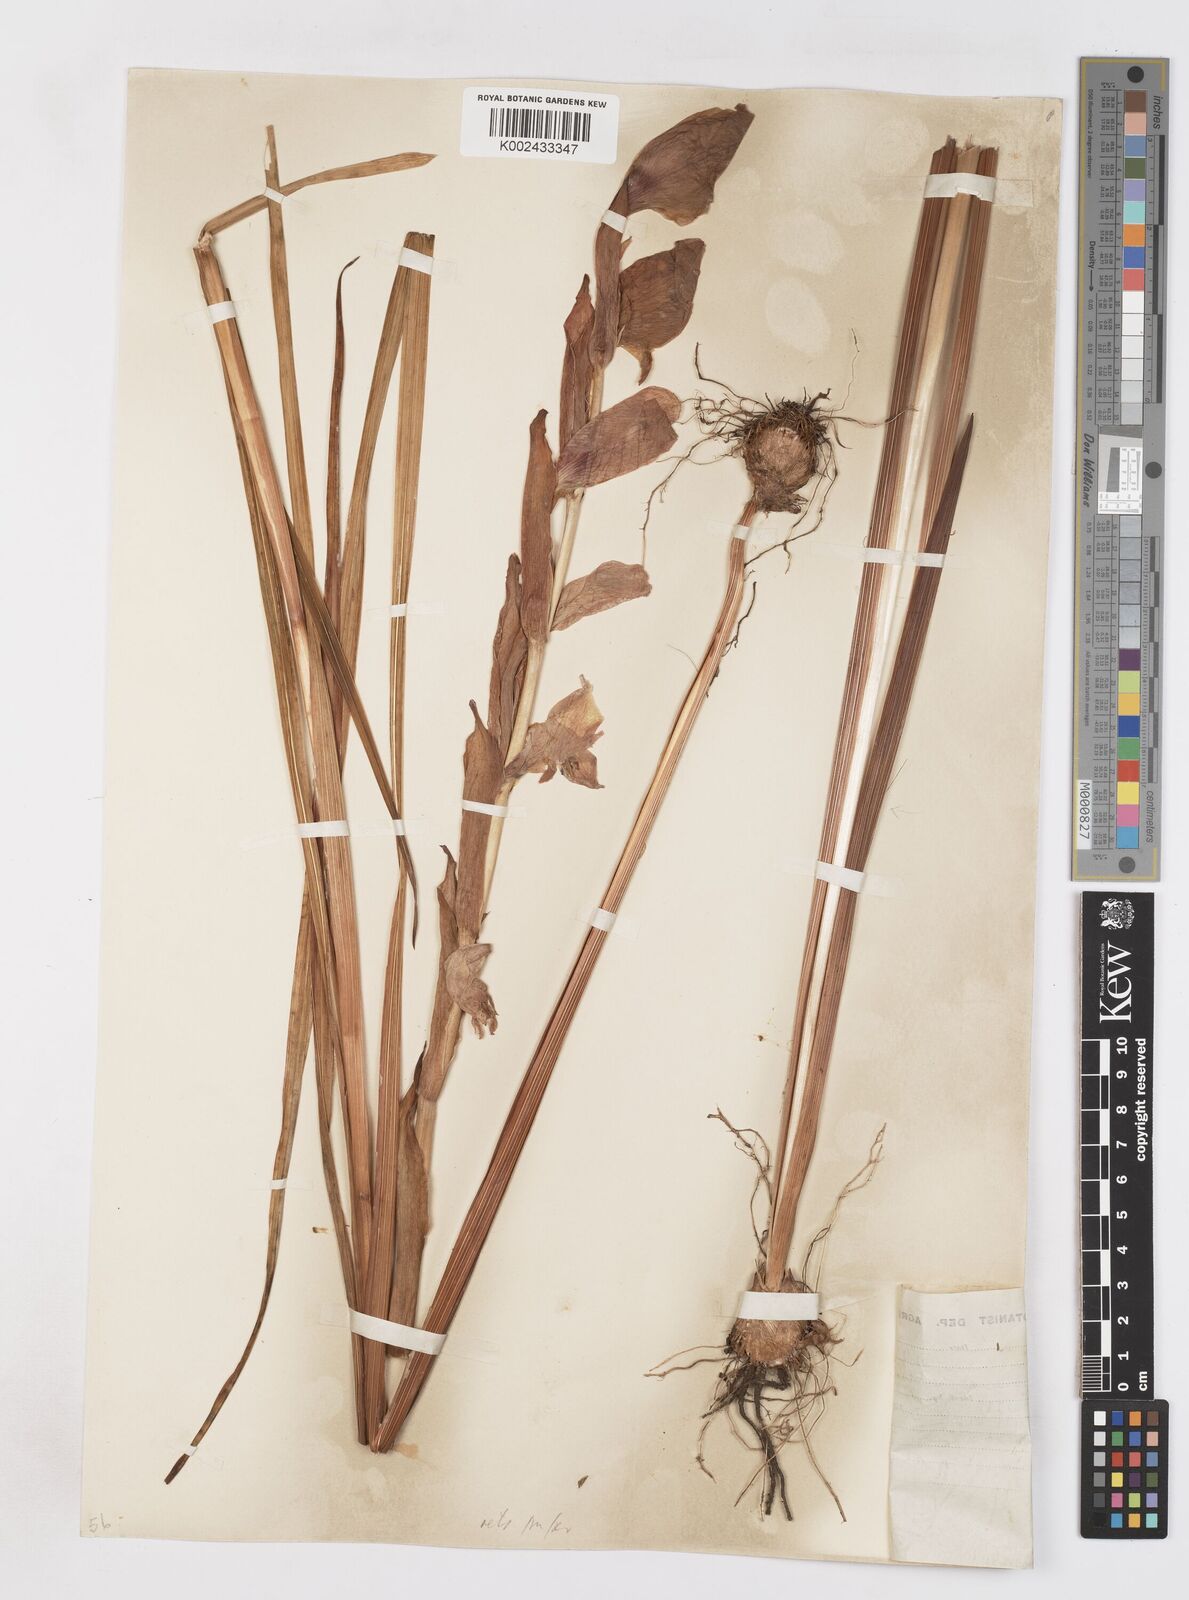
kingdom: Plantae
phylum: Tracheophyta
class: Liliopsida
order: Asparagales
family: Iridaceae
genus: Gladiolus
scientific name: Gladiolus dalenii
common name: Cornflag
